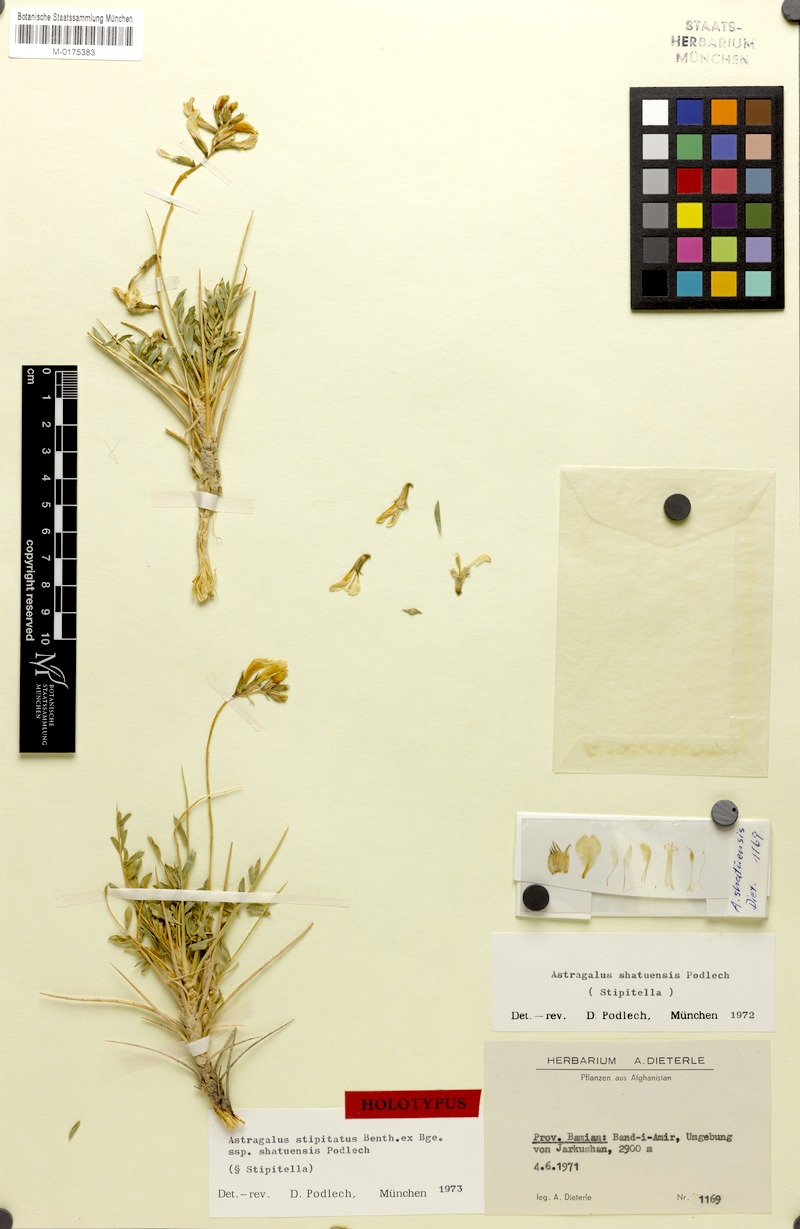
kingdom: Plantae
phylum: Tracheophyta
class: Magnoliopsida
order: Fabales
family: Fabaceae
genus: Astragalus
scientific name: Astragalus stipitatus
